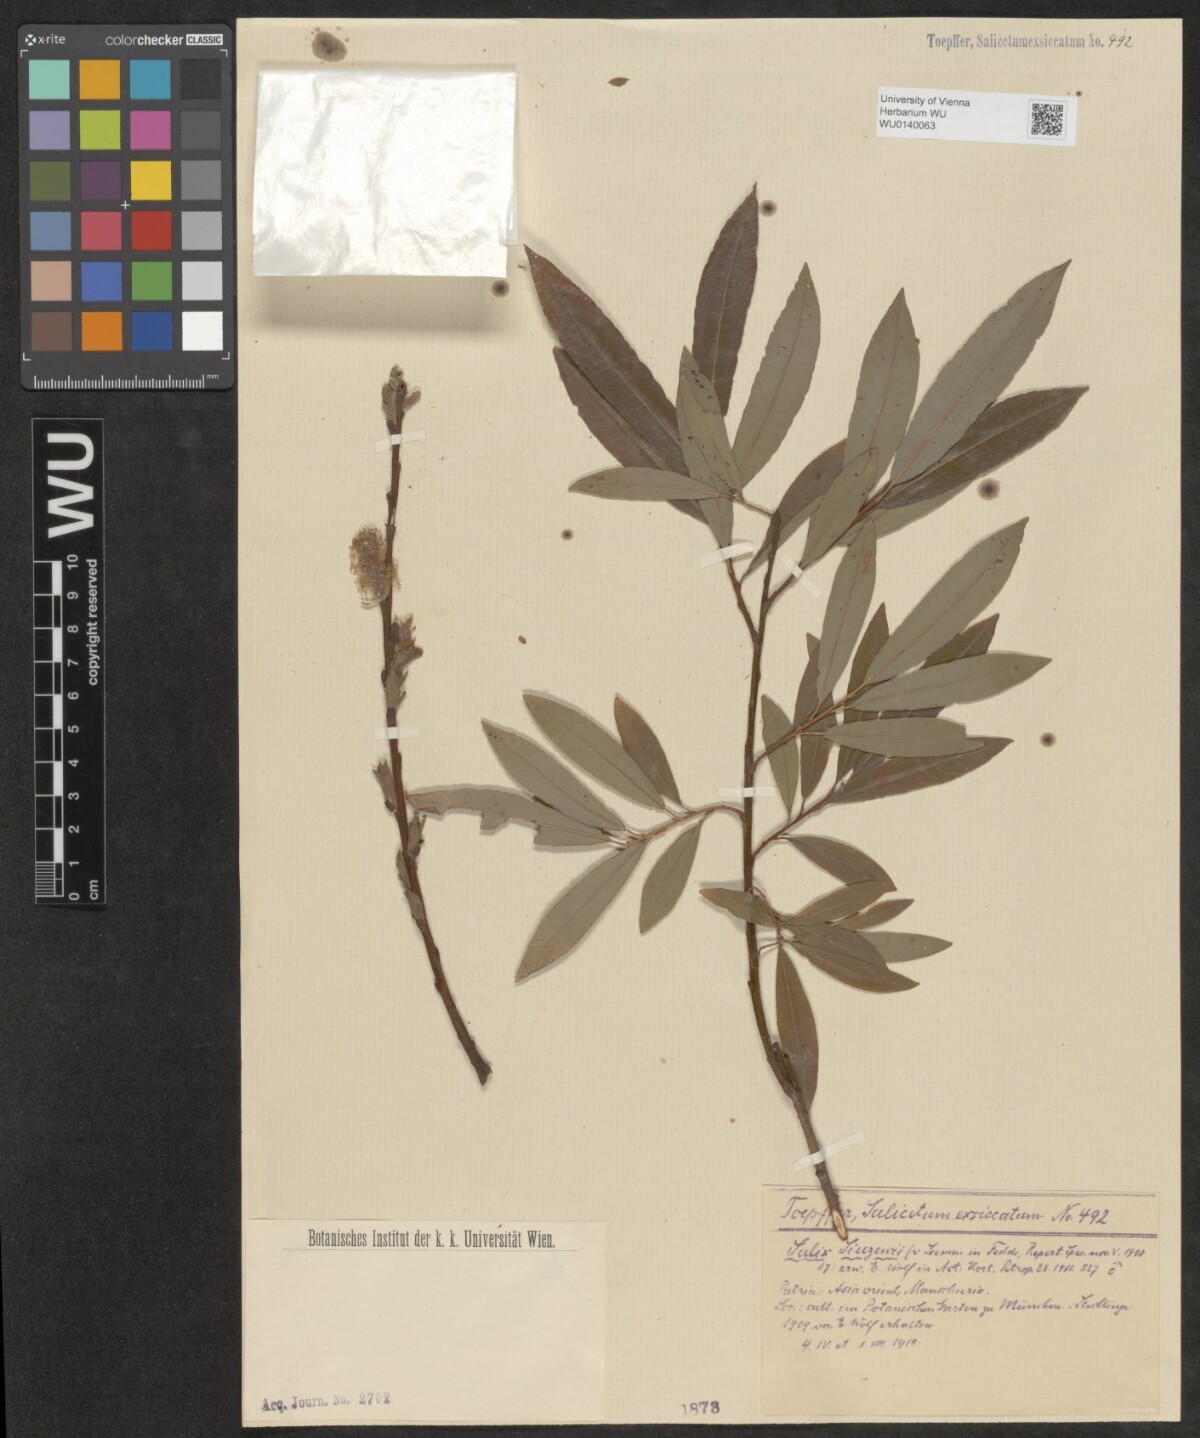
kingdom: Plantae
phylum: Tracheophyta
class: Magnoliopsida
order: Malpighiales
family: Salicaceae
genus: Salix
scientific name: Salix udensis
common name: Sachalin willow
